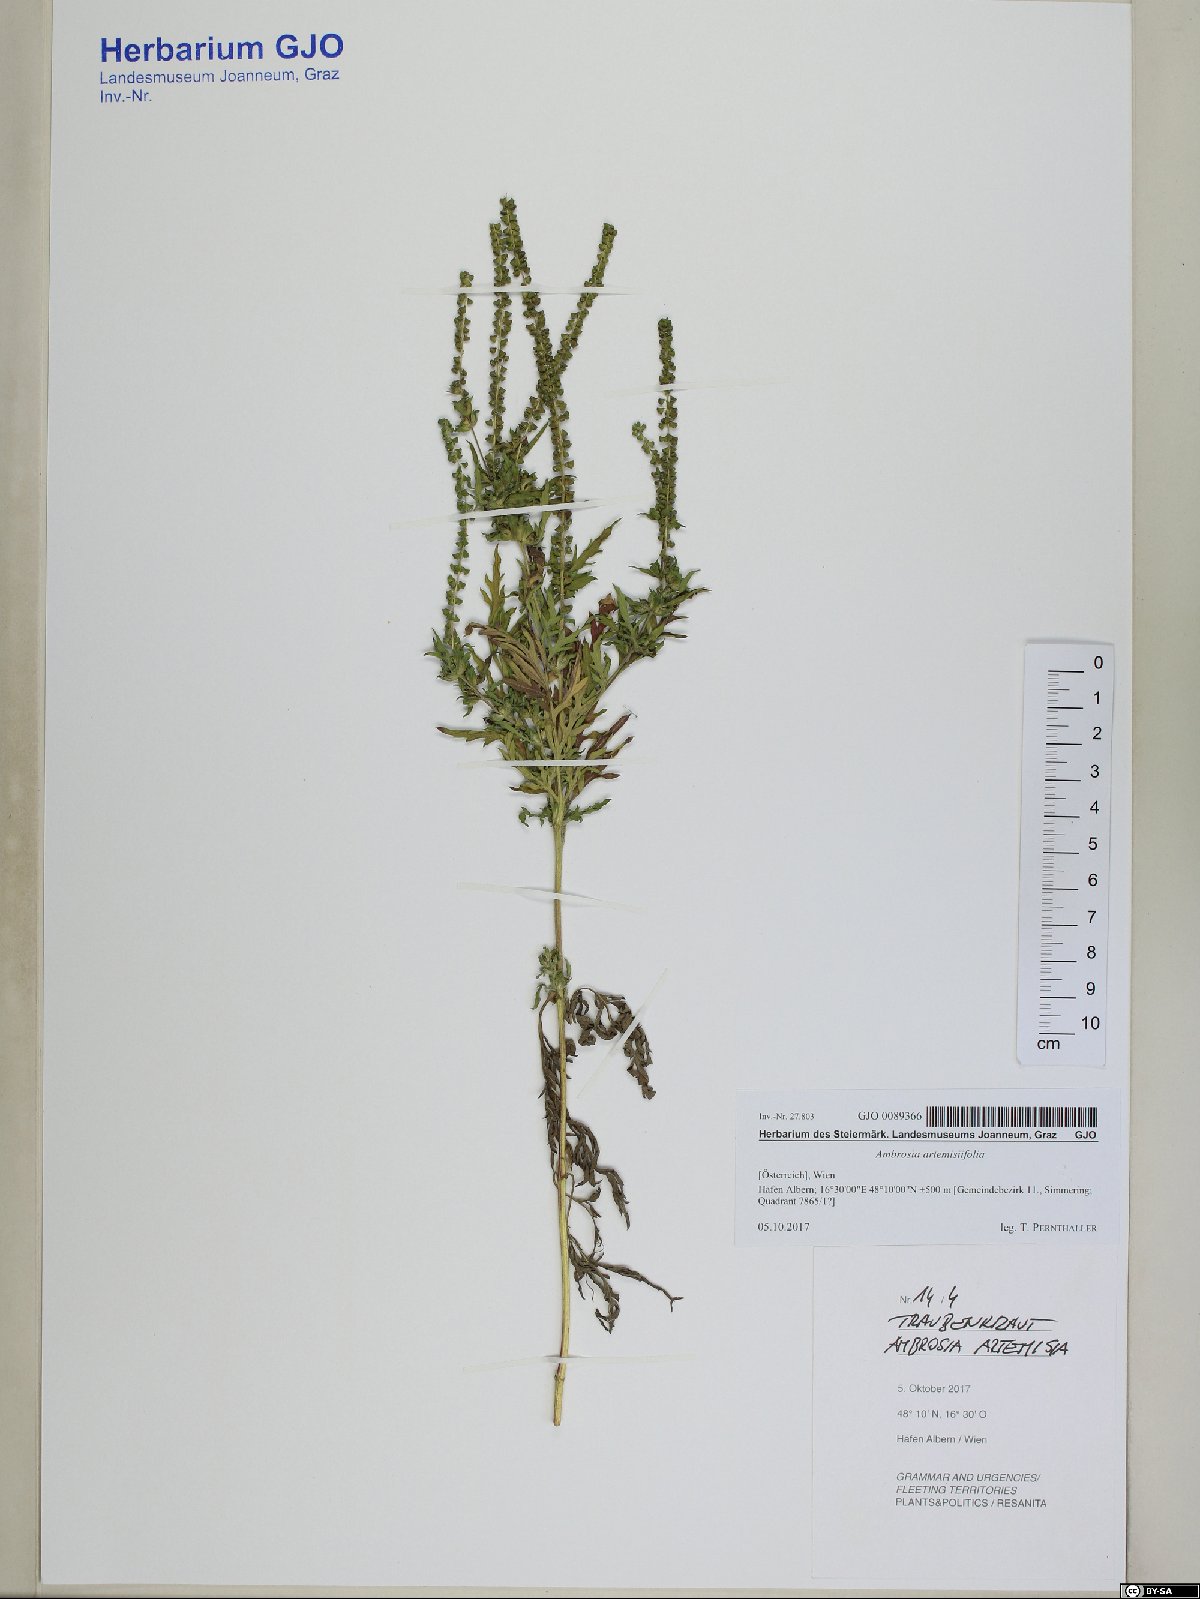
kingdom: Plantae
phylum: Tracheophyta
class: Magnoliopsida
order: Asterales
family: Asteraceae
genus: Ambrosia
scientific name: Ambrosia artemisiifolia
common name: Annual ragweed
